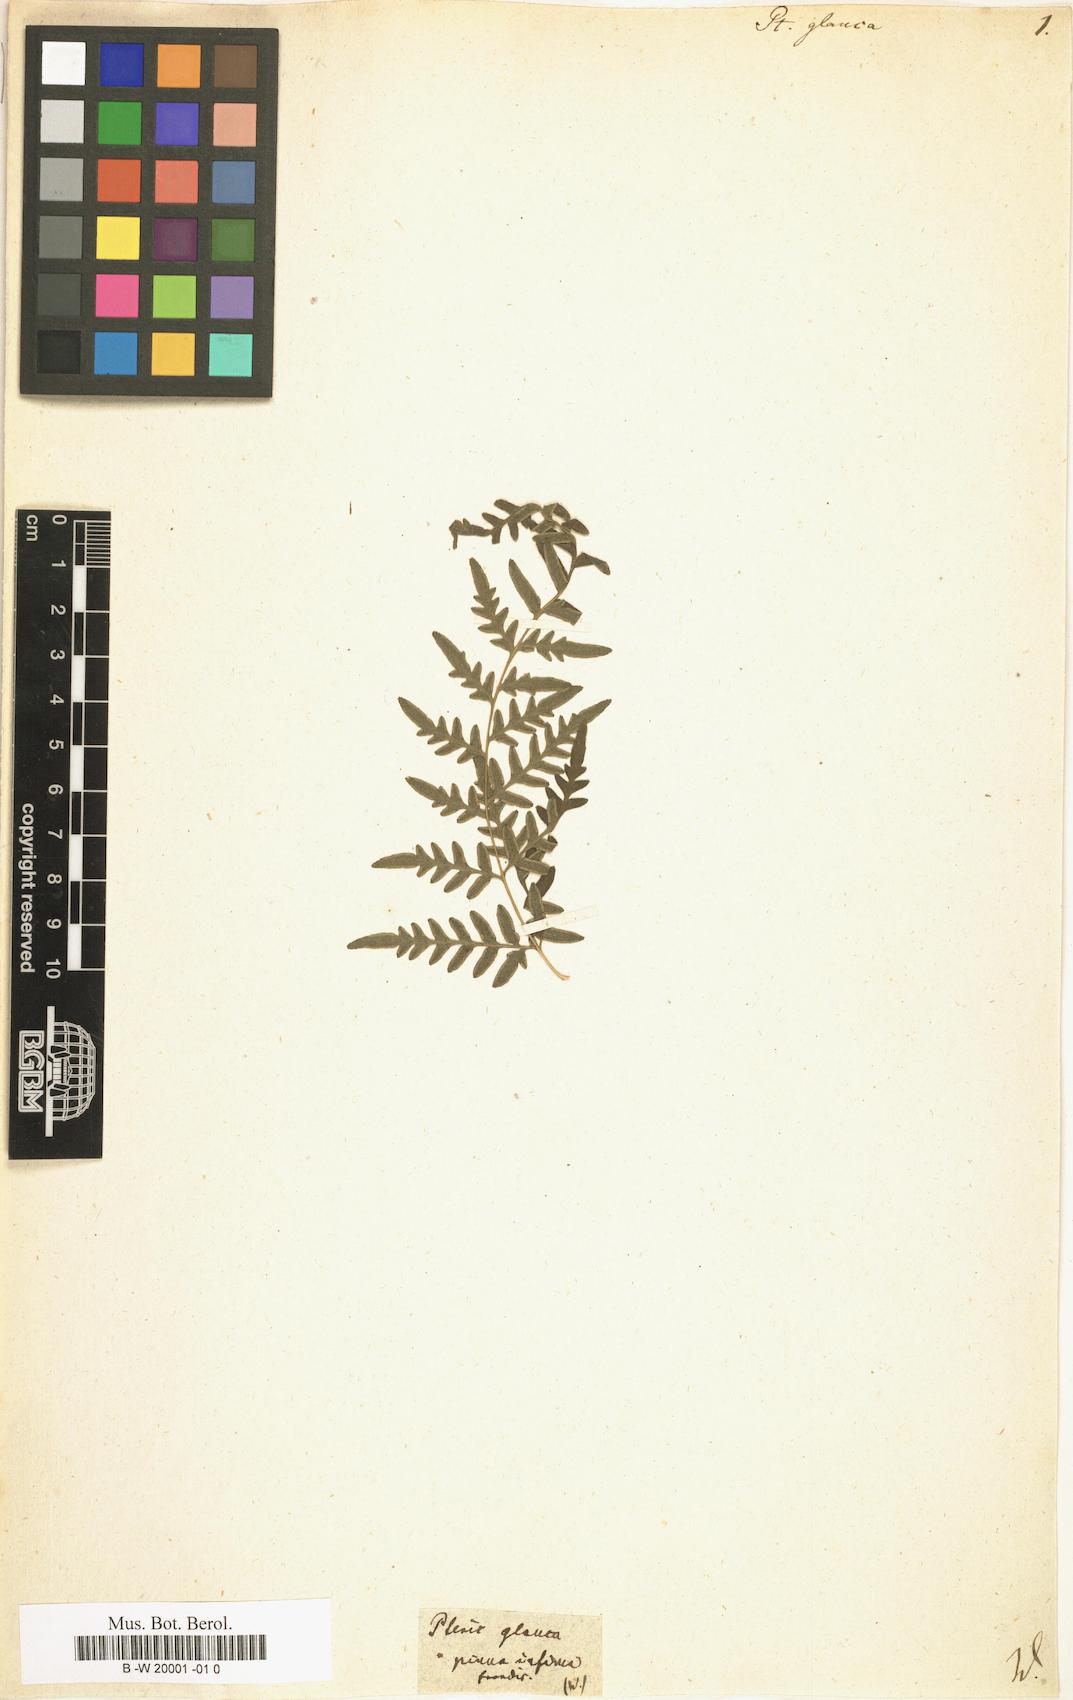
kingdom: Plantae
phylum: Tracheophyta
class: Polypodiopsida
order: Polypodiales
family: Pteridaceae
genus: Pteris
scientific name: Pteris glauca
